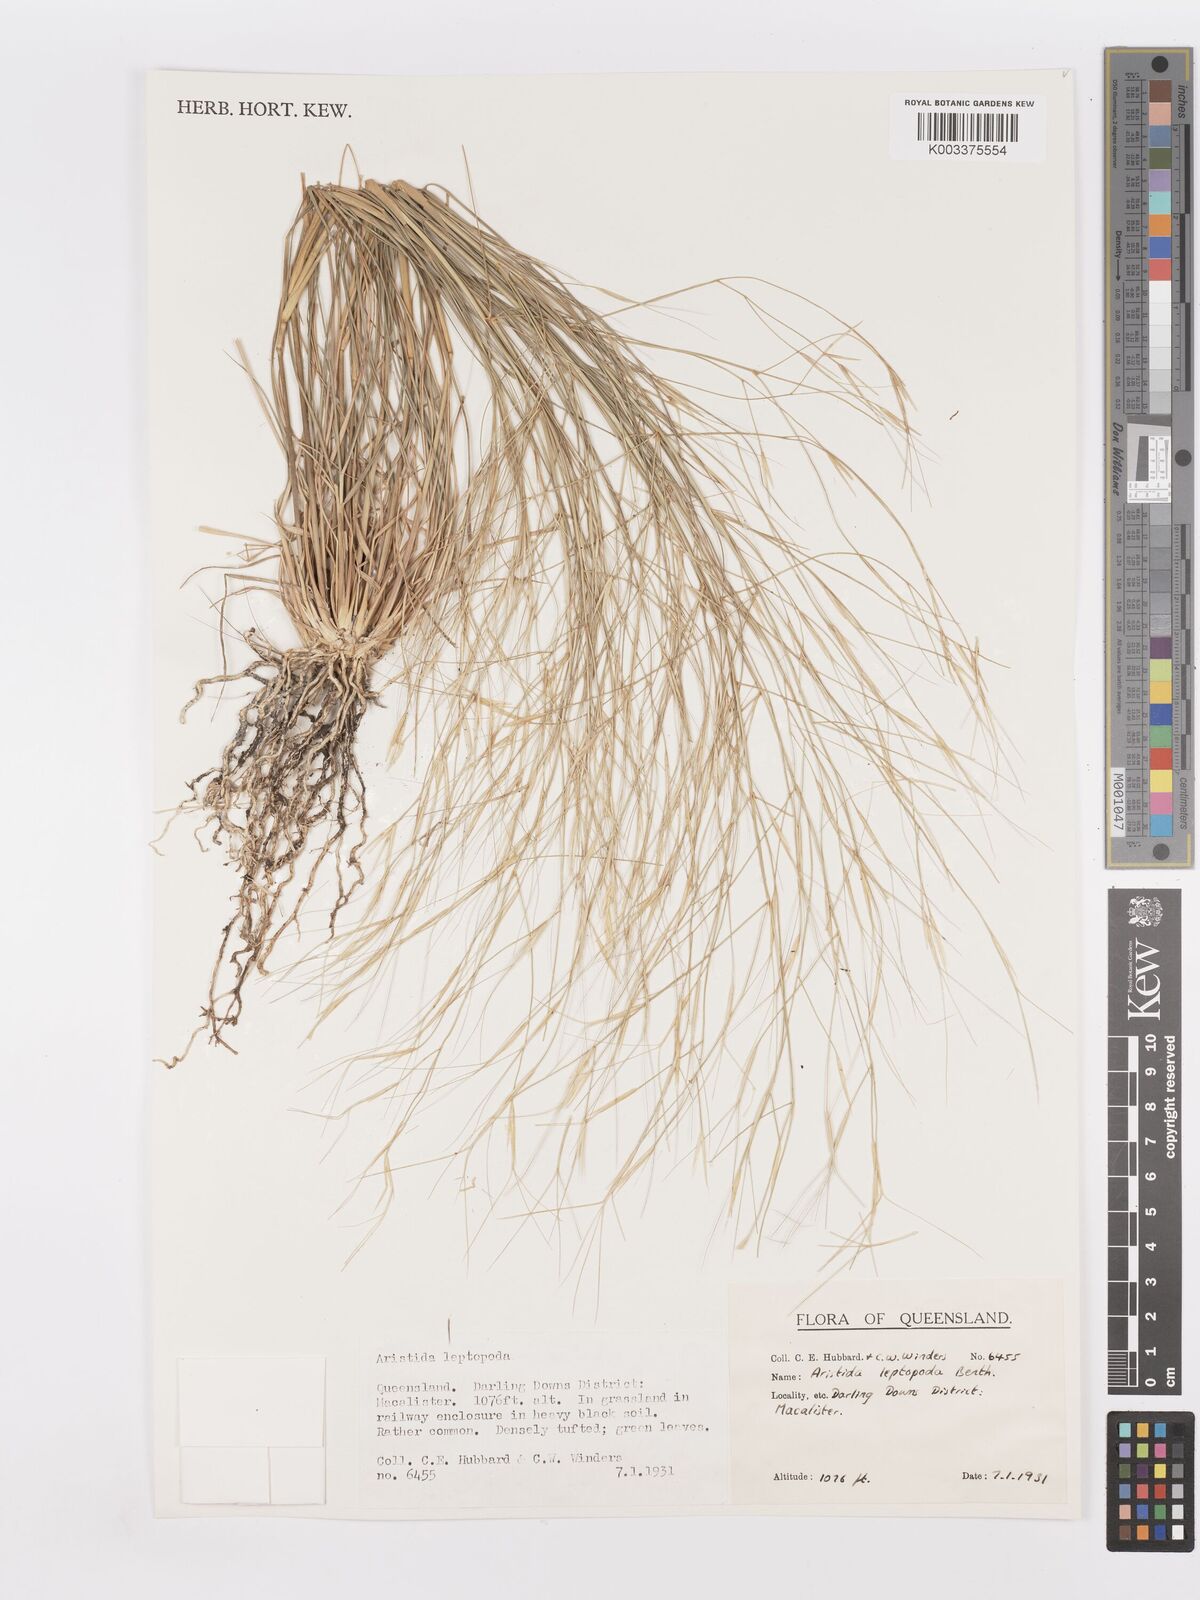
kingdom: Plantae
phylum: Tracheophyta
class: Liliopsida
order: Poales
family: Poaceae
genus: Aristida
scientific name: Aristida leptopoda
